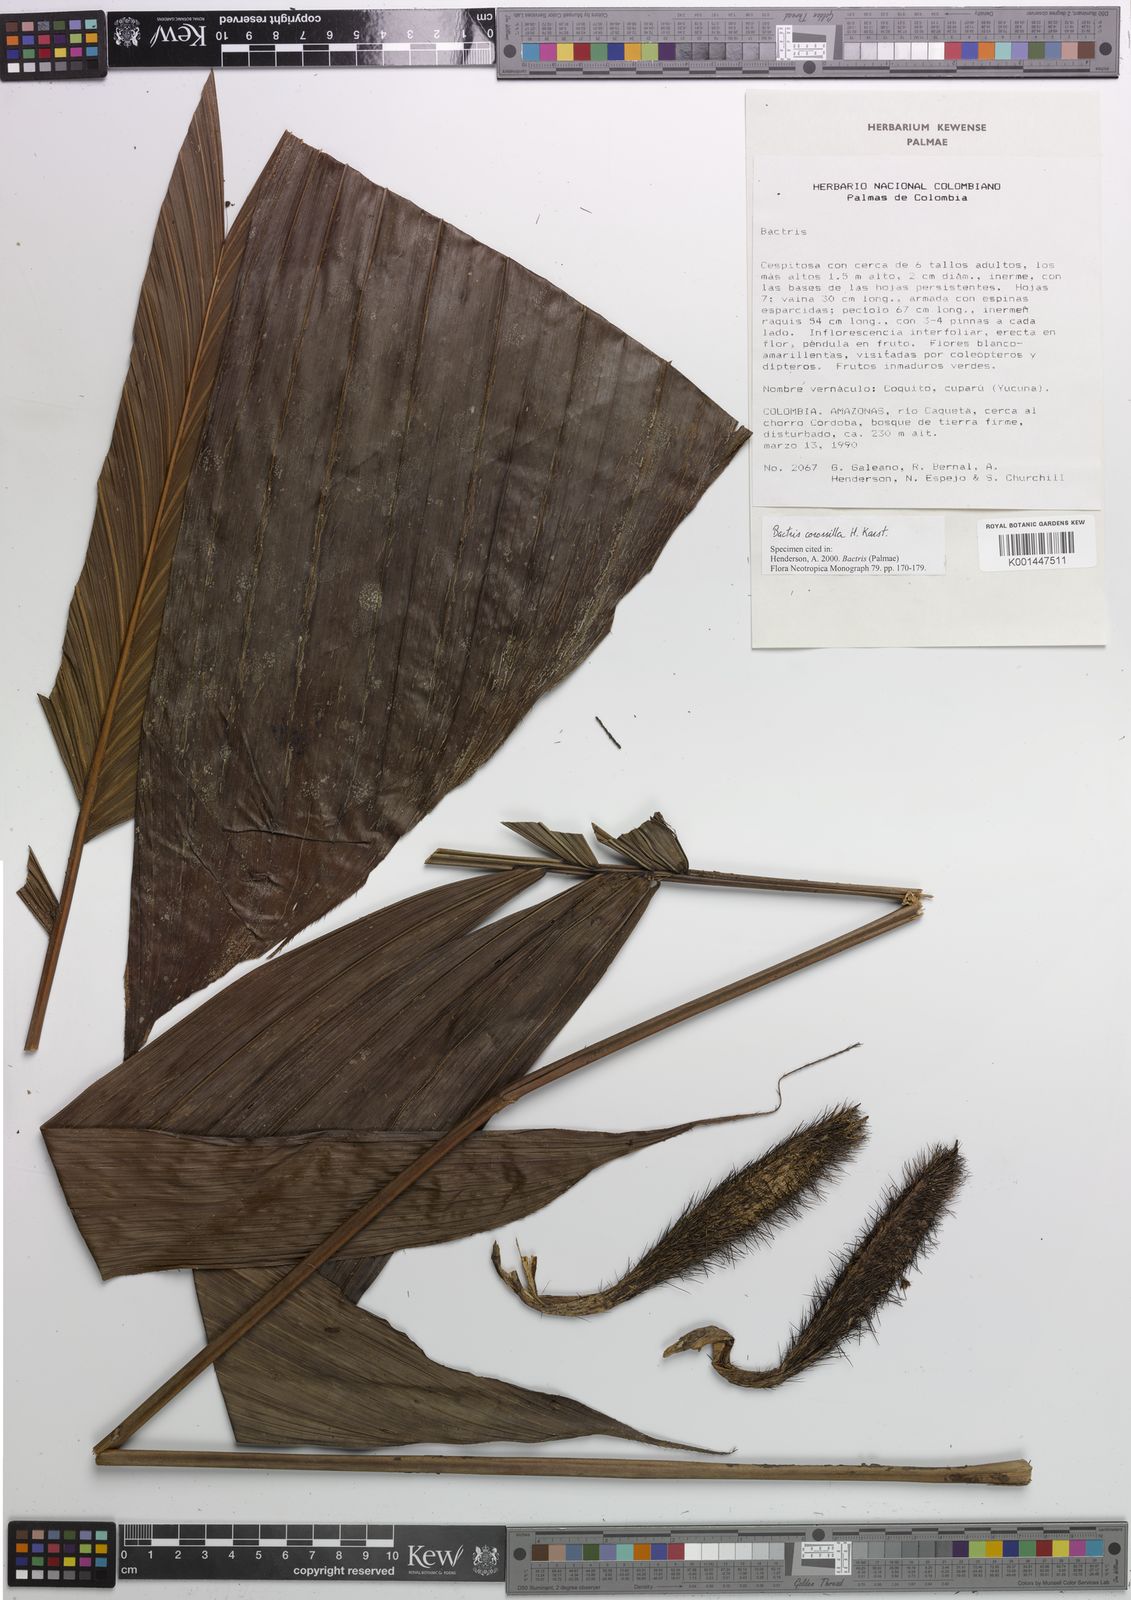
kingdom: Plantae
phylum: Tracheophyta
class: Liliopsida
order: Arecales
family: Arecaceae
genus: Bactris
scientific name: Bactris corossilla
